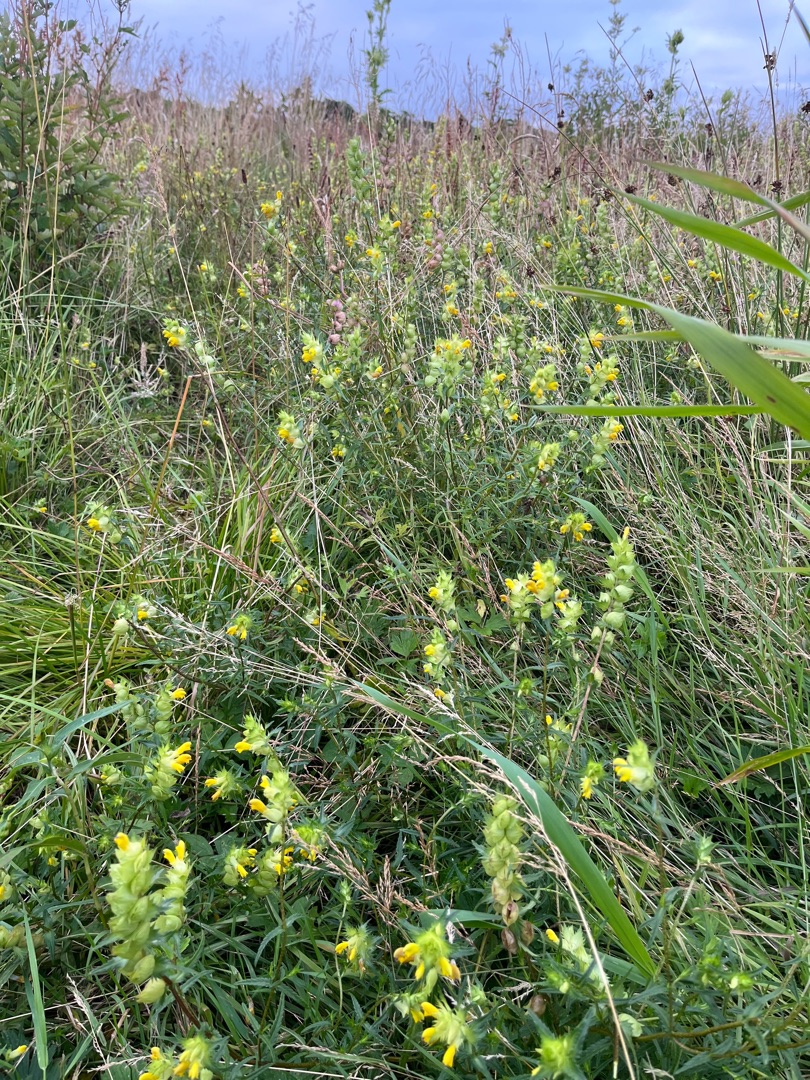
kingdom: Plantae
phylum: Tracheophyta
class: Magnoliopsida
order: Lamiales
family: Orobanchaceae
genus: Rhinanthus
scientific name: Rhinanthus
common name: Stor skjaller
